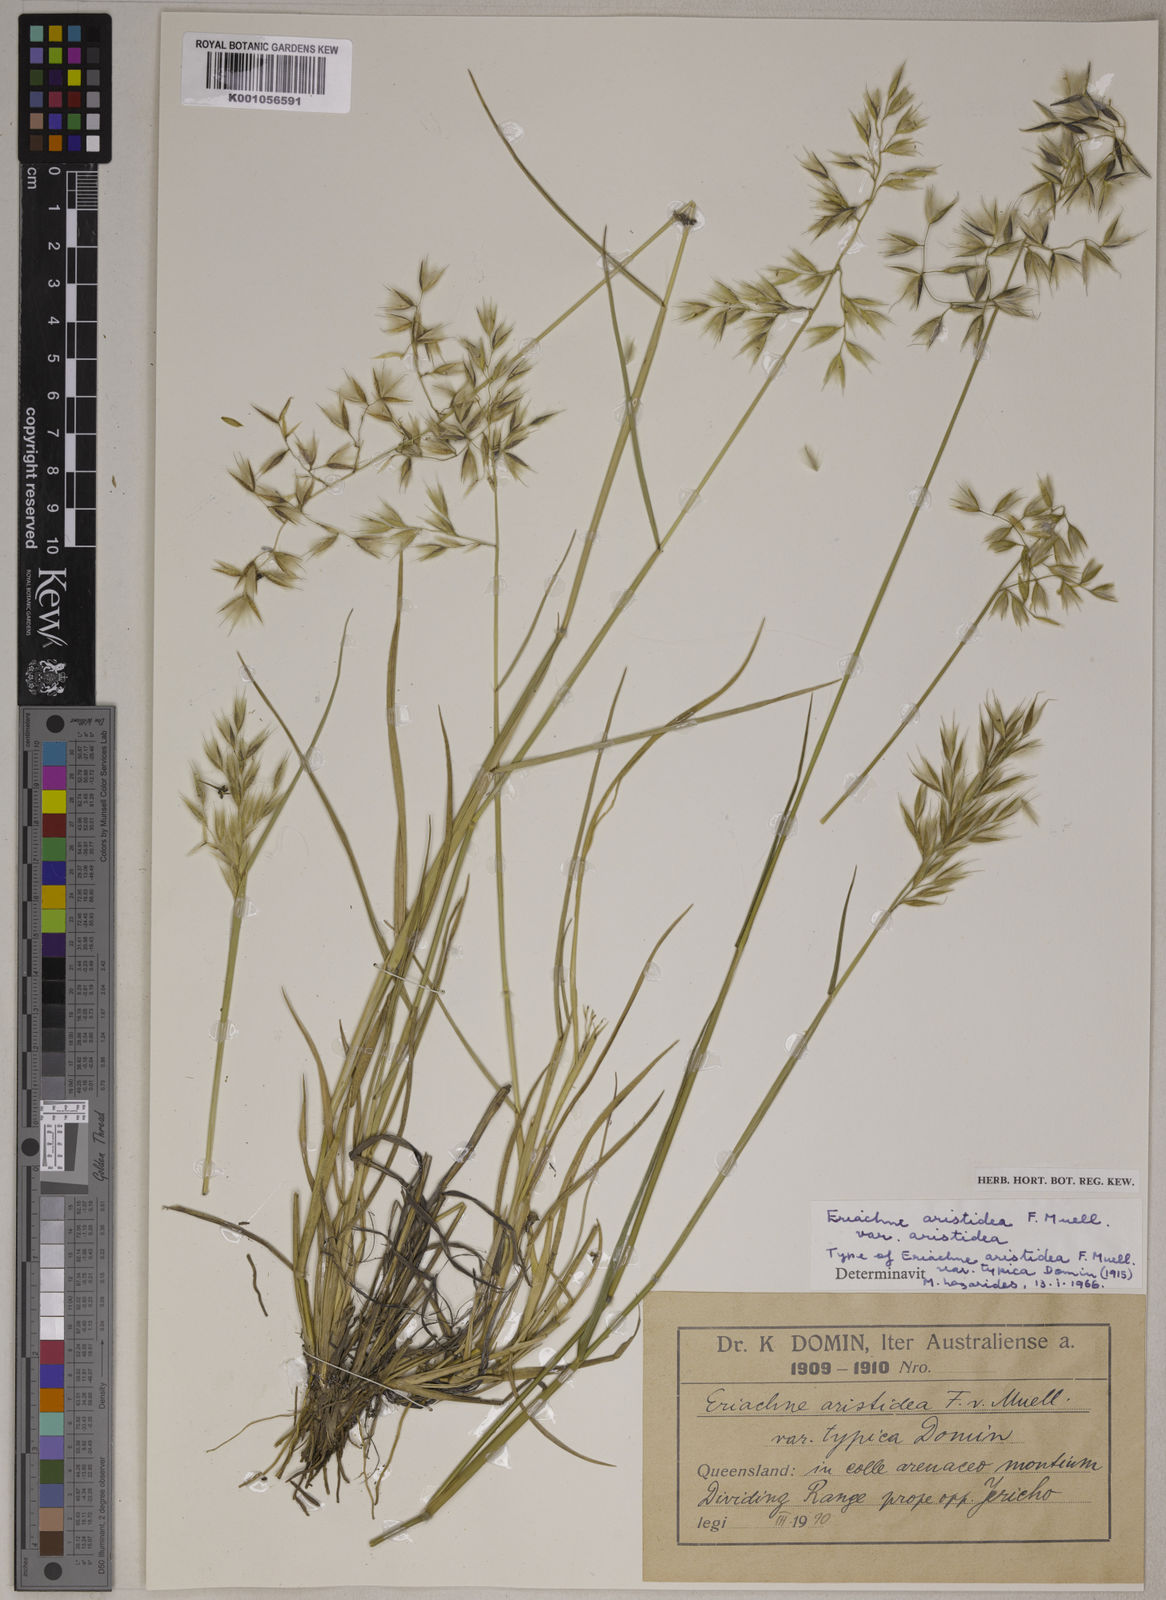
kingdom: Plantae
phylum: Tracheophyta
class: Liliopsida
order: Poales
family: Poaceae
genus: Eriachne
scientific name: Eriachne aristidea
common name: Three-awn wanderrie grass
